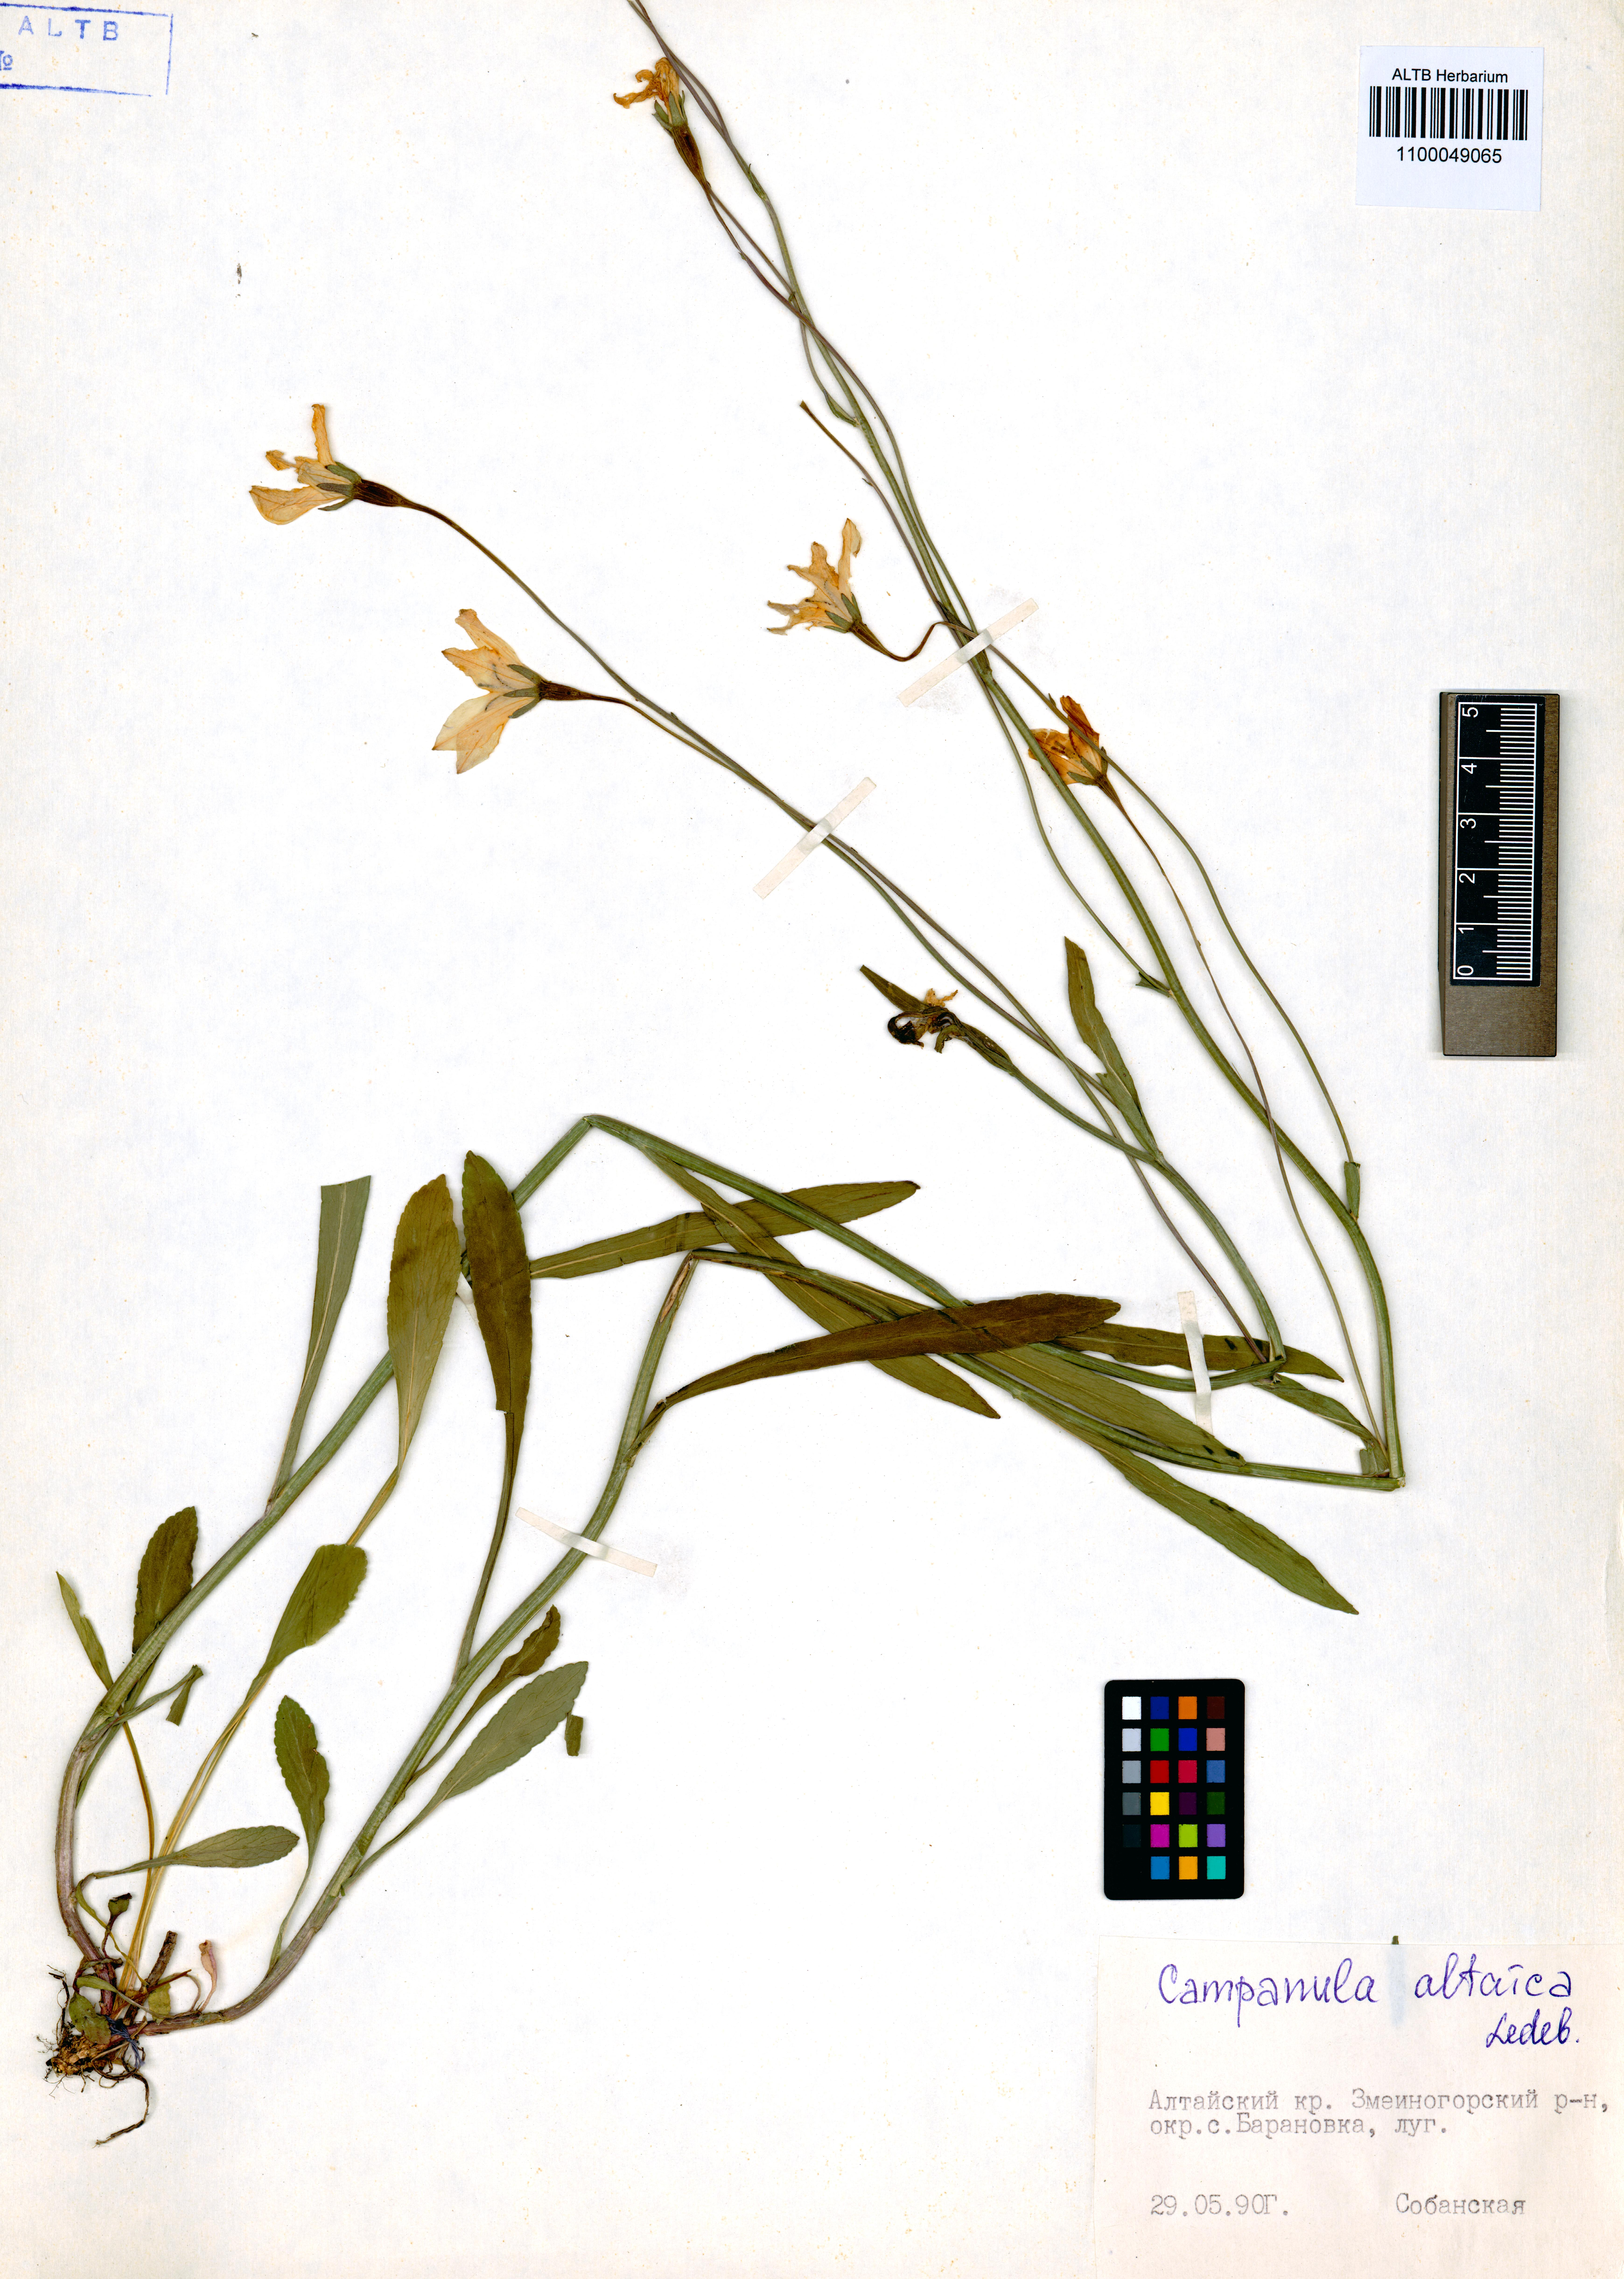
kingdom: Plantae
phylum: Tracheophyta
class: Magnoliopsida
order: Asterales
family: Campanulaceae
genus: Campanula
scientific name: Campanula stevenii
